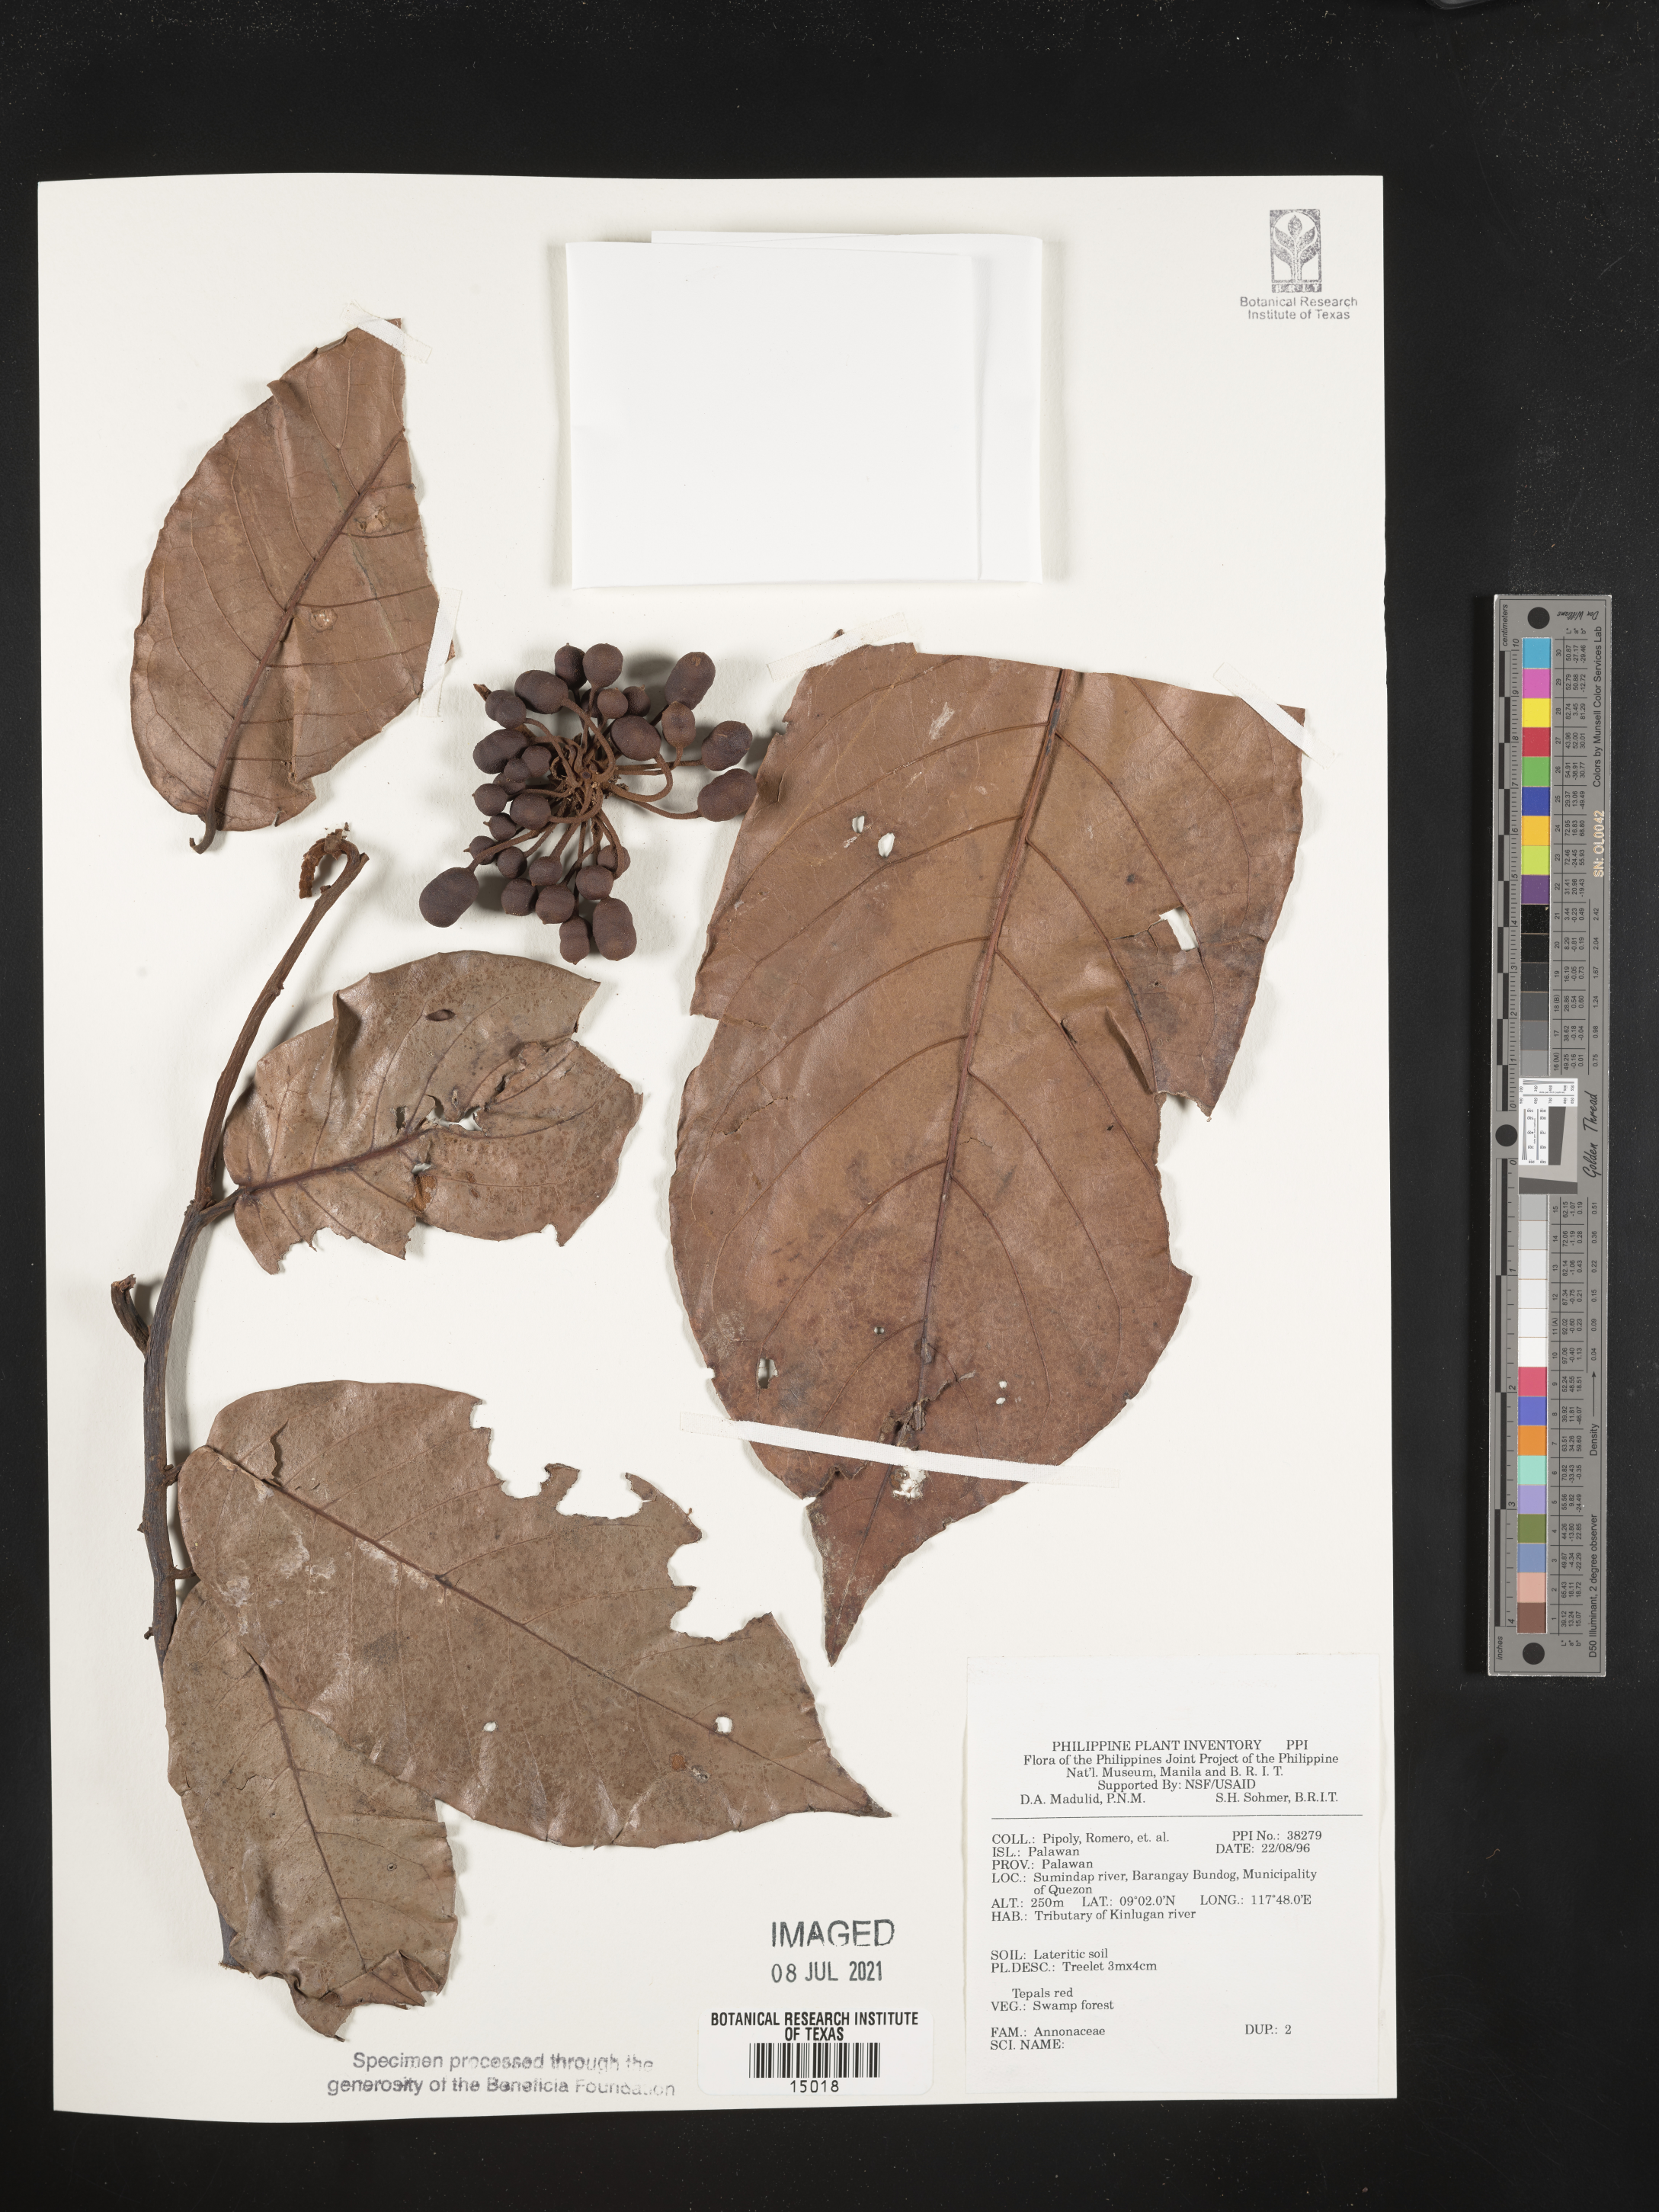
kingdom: Plantae
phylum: Tracheophyta
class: Magnoliopsida
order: Magnoliales
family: Annonaceae
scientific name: Annonaceae
